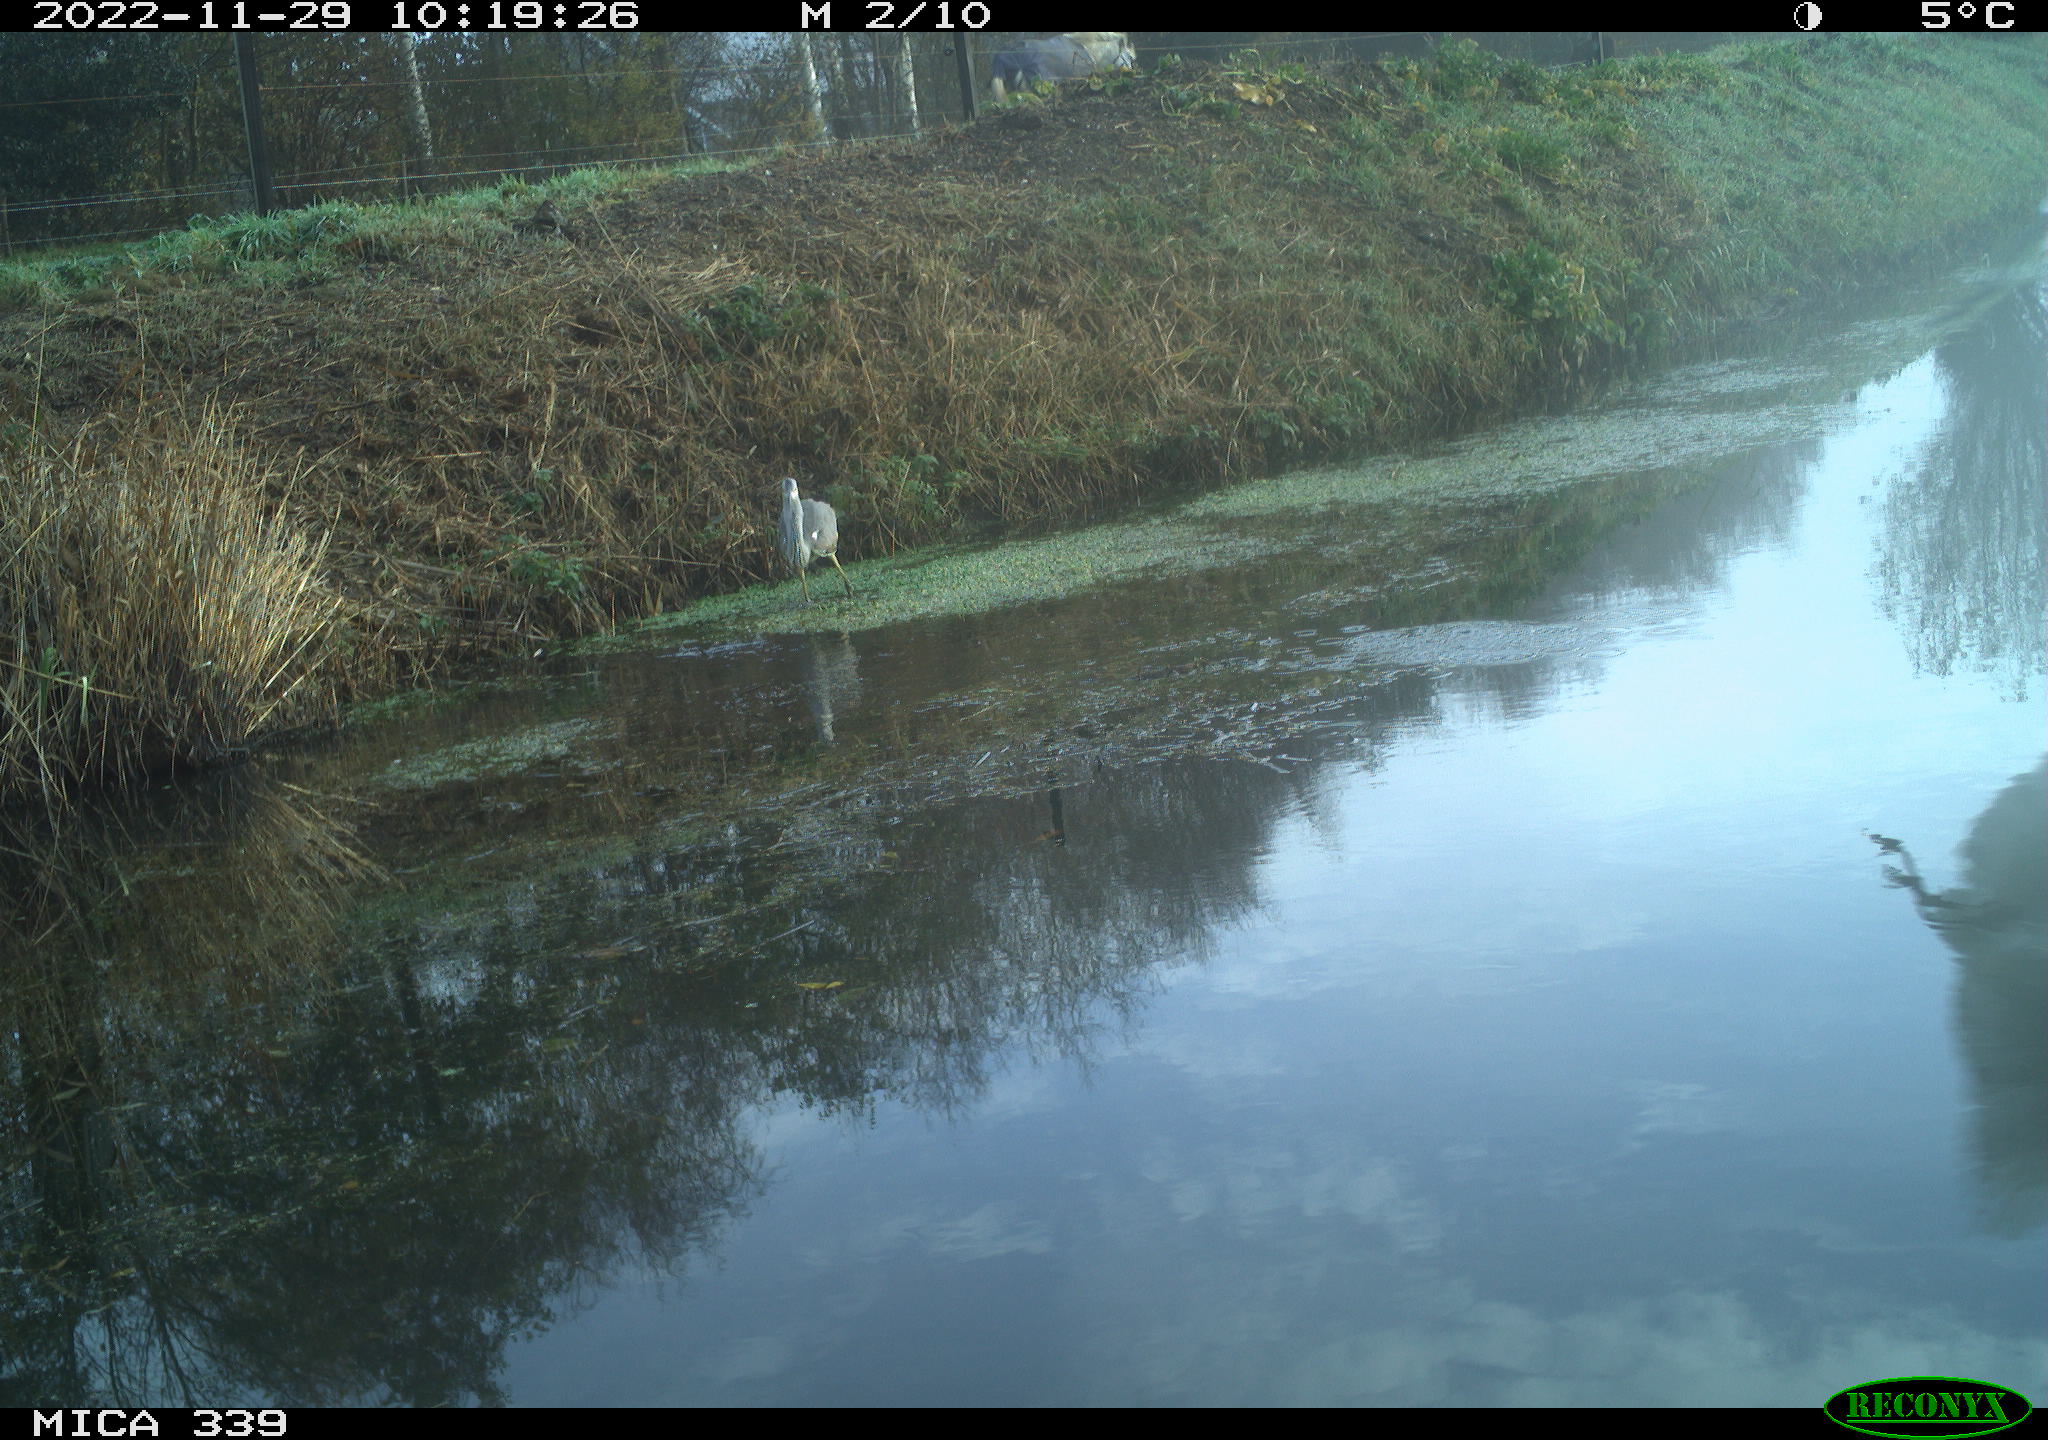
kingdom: Animalia
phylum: Chordata
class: Aves
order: Pelecaniformes
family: Ardeidae
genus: Ardea
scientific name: Ardea cinerea
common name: Grey heron
